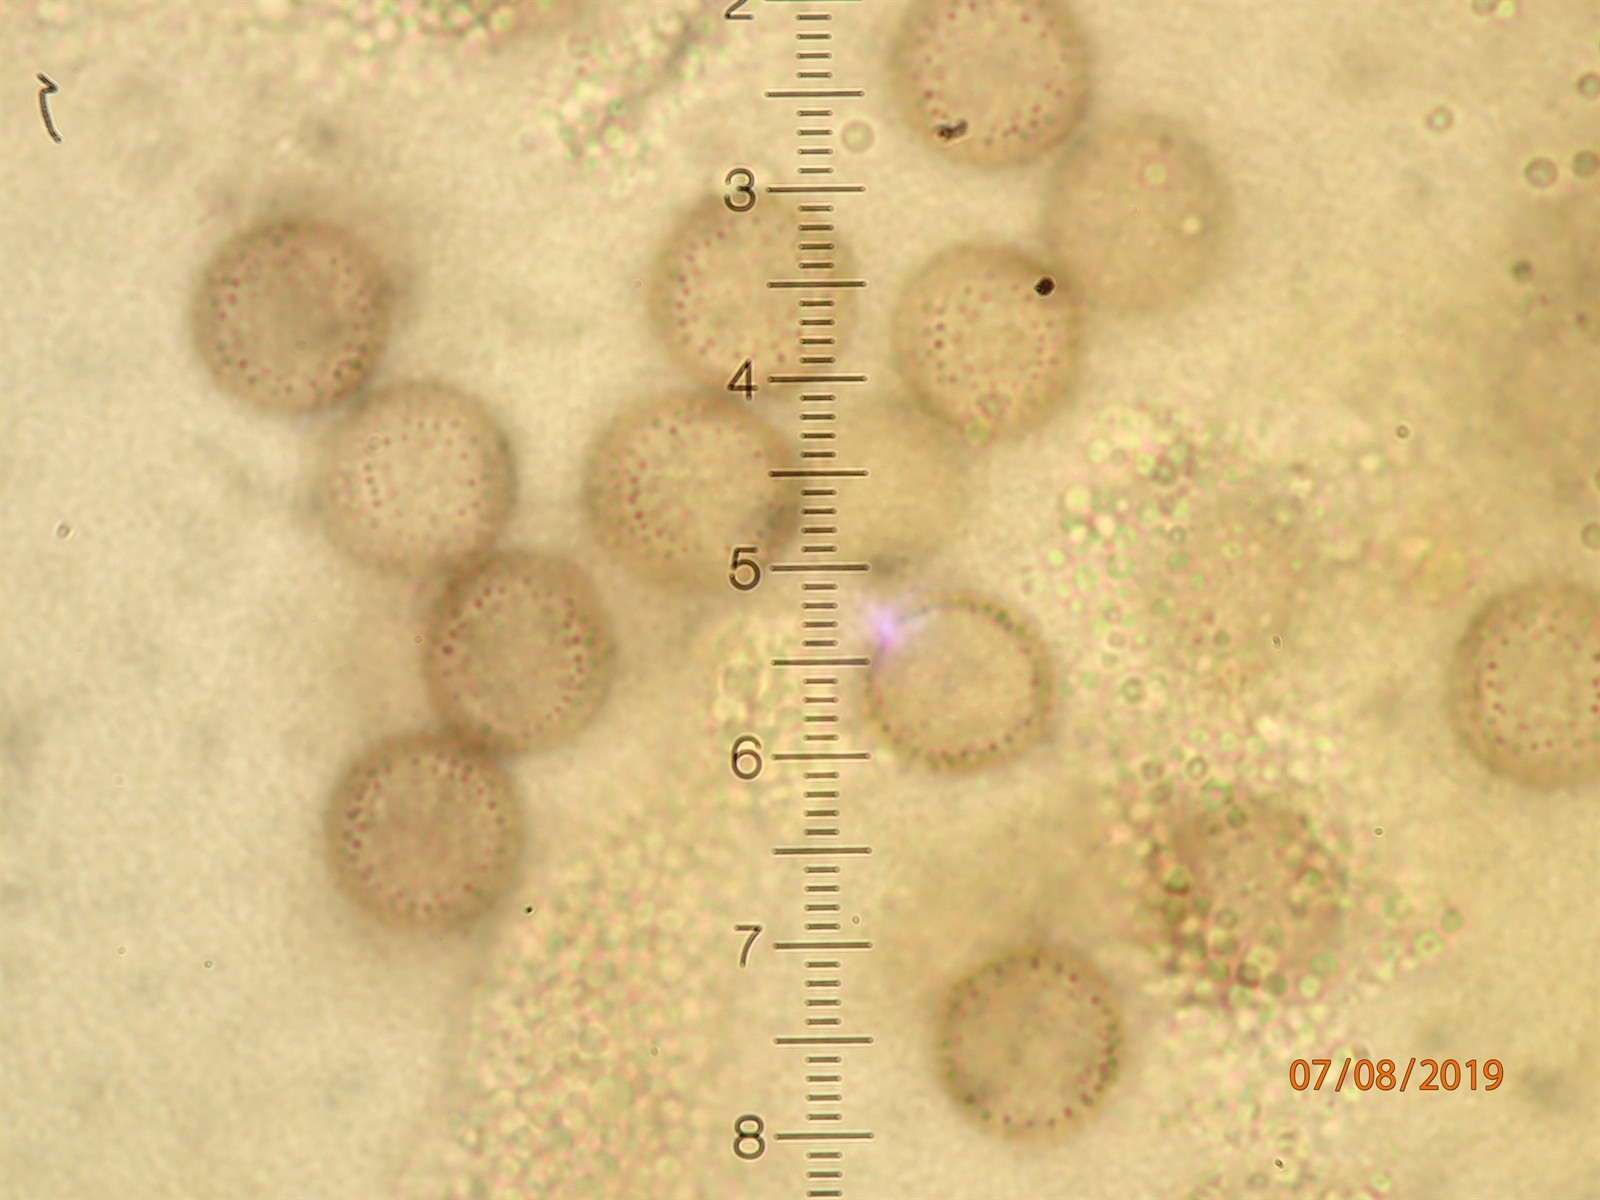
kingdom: Protozoa
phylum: Mycetozoa
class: Myxomycetes
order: Physarales
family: Physaraceae
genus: Physarum
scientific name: Physarum bryocorticola
